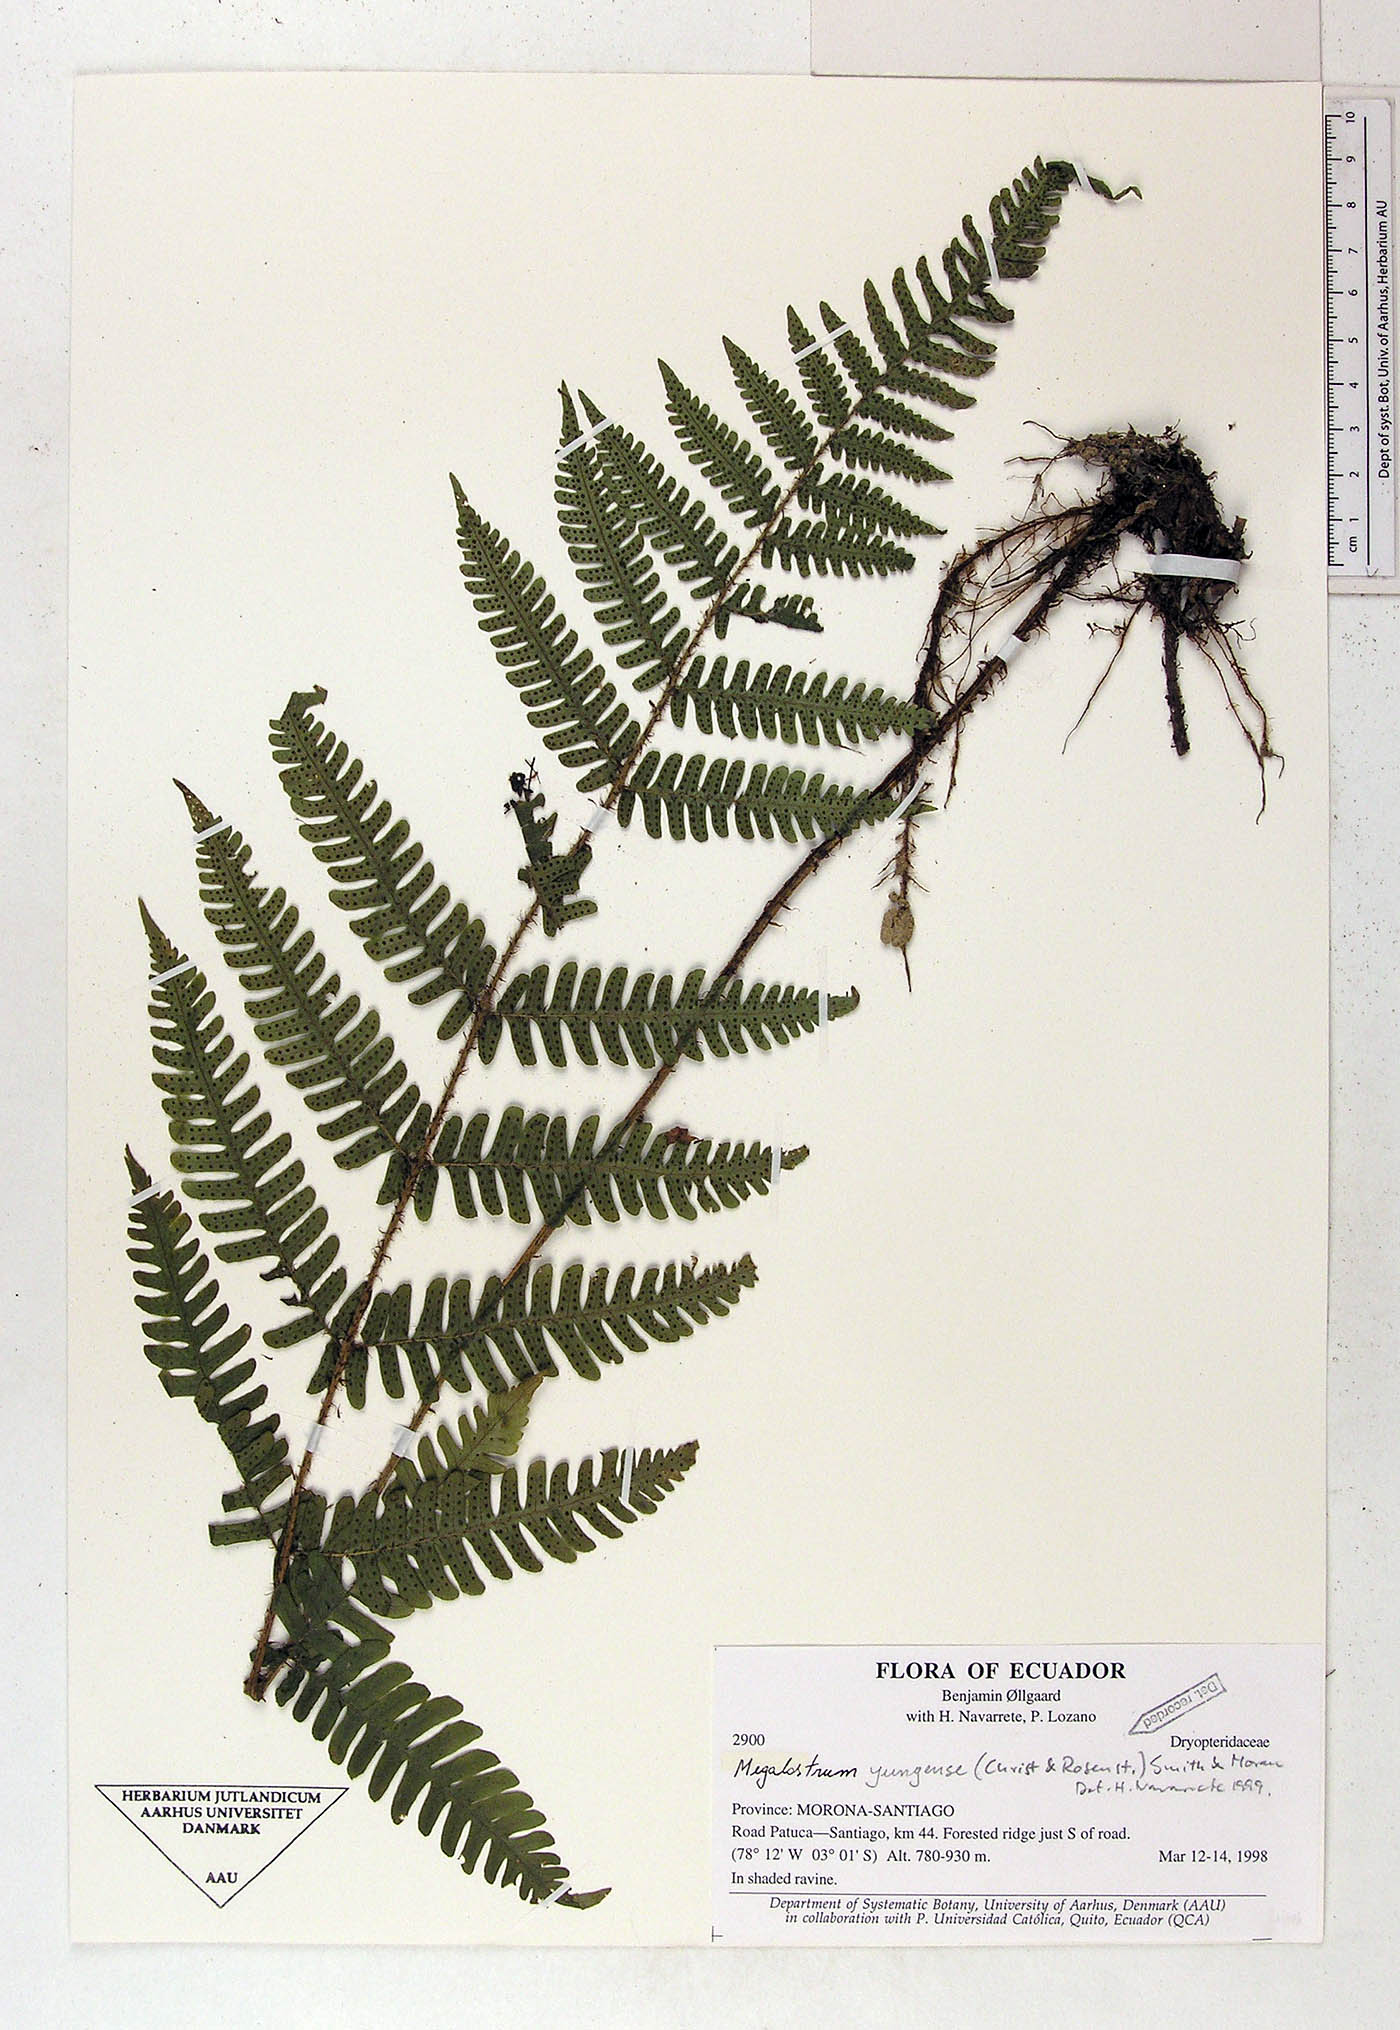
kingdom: Plantae
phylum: Tracheophyta
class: Polypodiopsida
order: Polypodiales
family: Dryopteridaceae
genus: Megalastrum
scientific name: Megalastrum bolivianum
